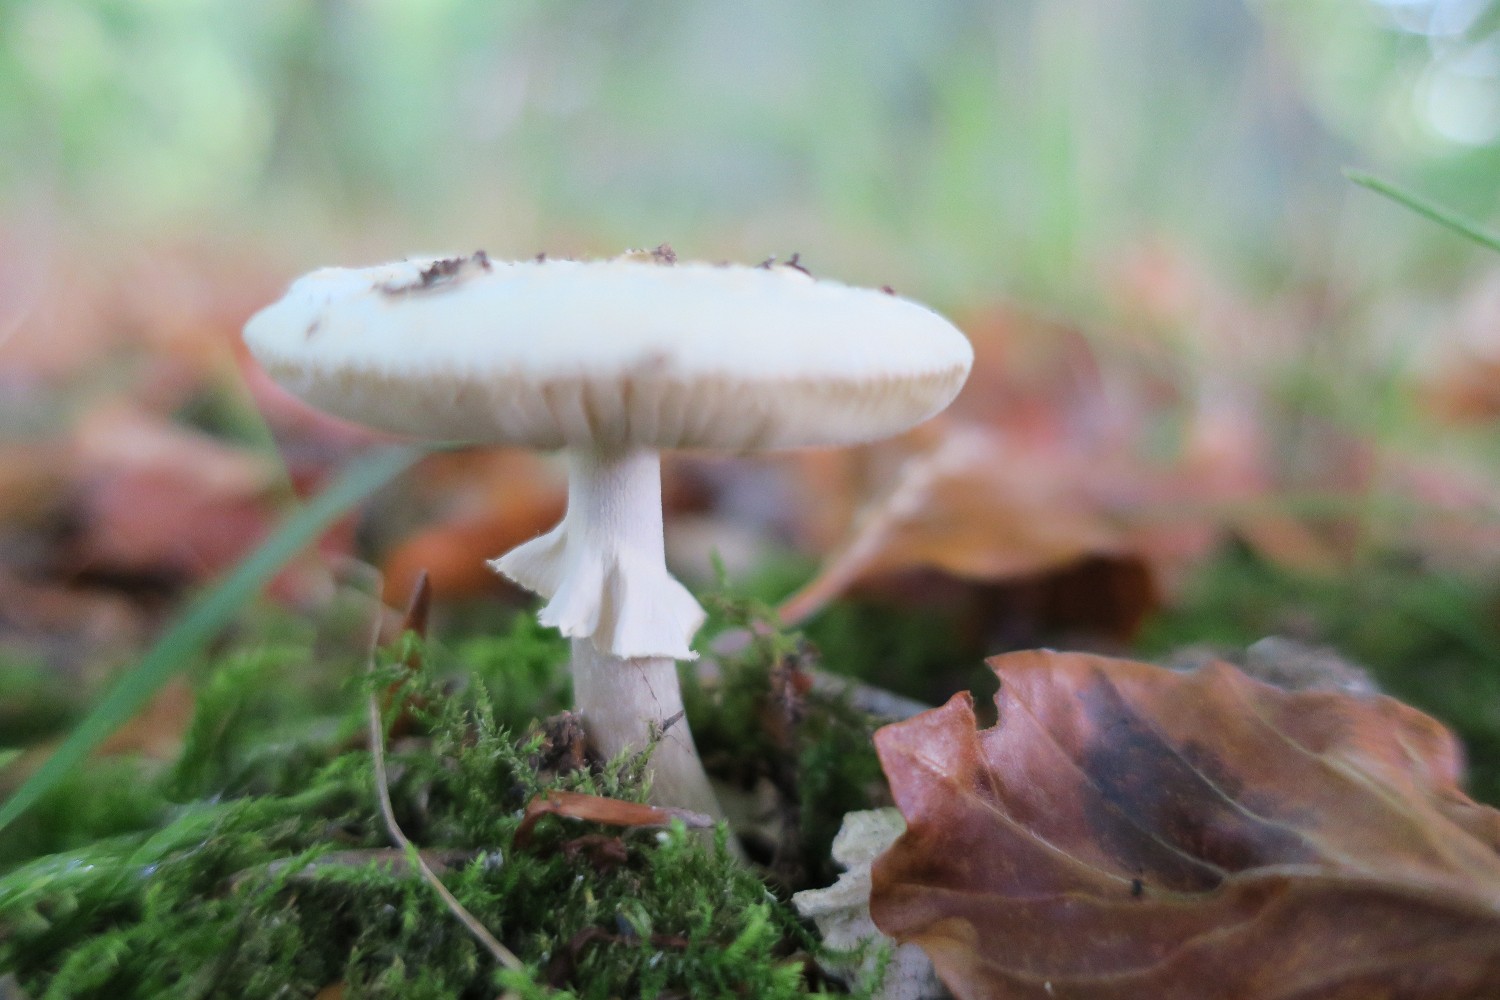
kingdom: Fungi
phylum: Basidiomycota
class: Agaricomycetes
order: Agaricales
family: Amanitaceae
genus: Amanita
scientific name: Amanita citrina
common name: kugleknoldet fluesvamp
